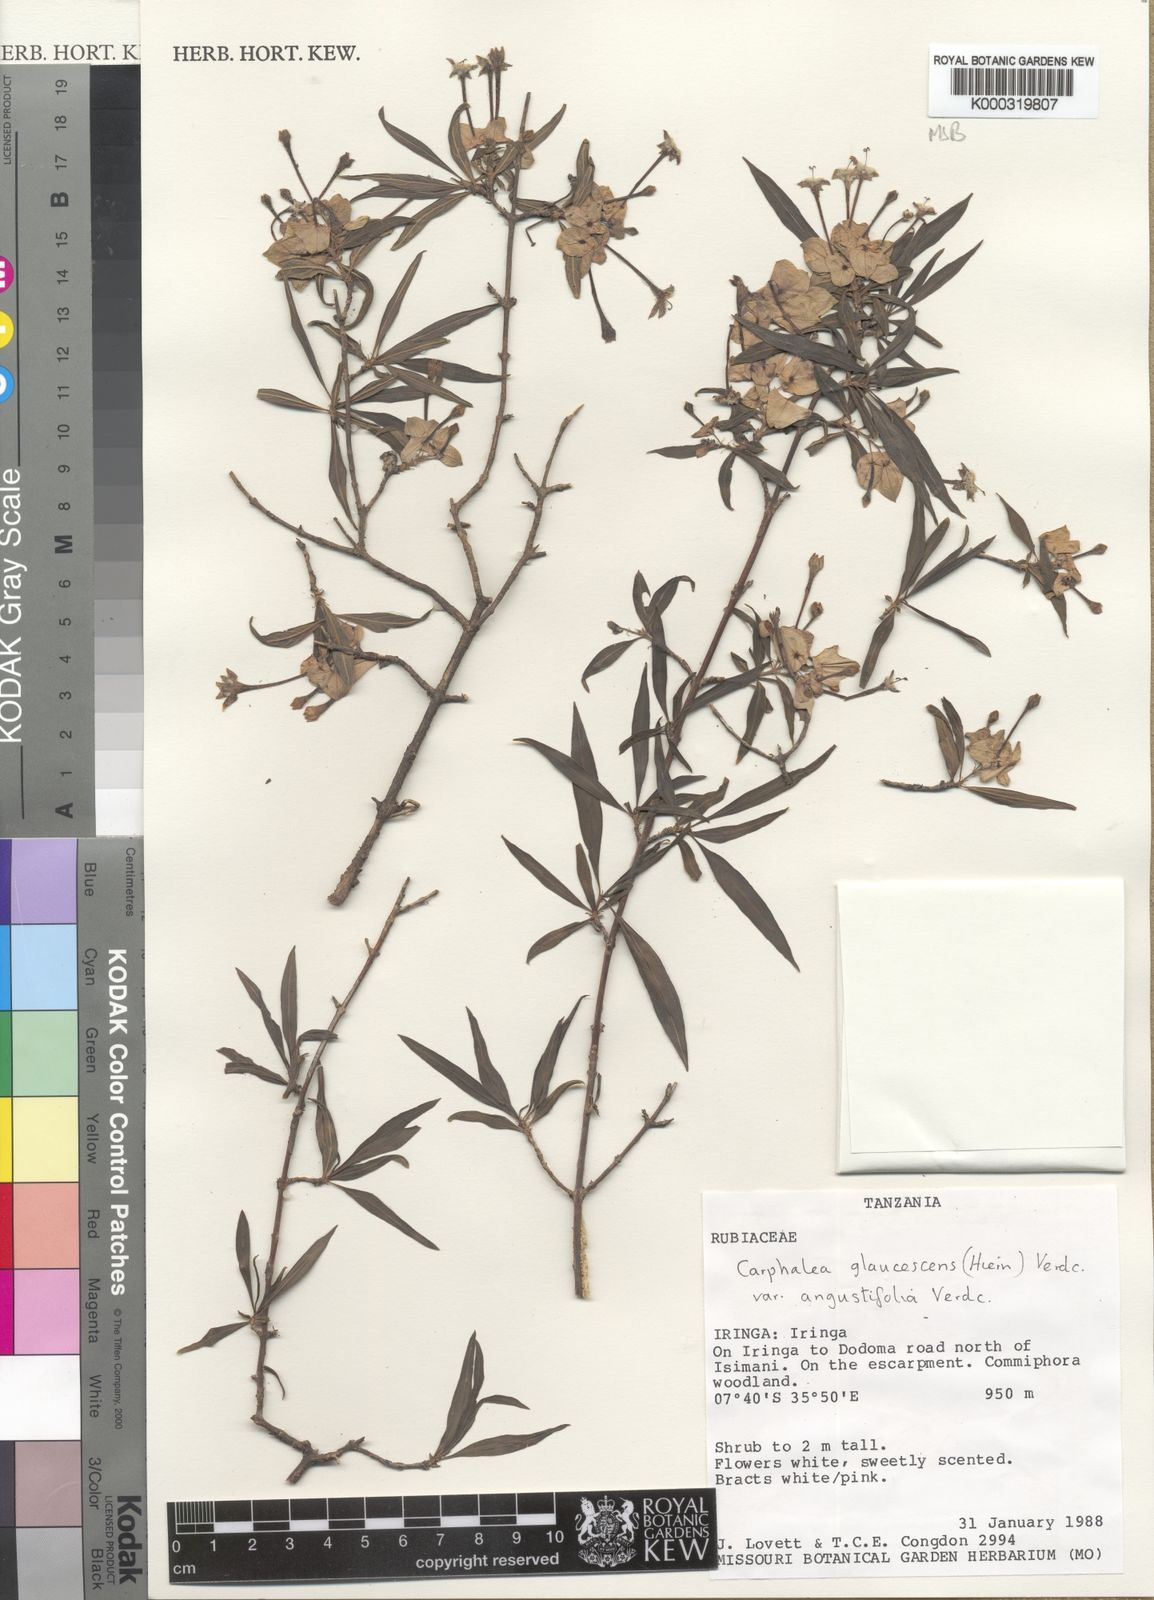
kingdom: Plantae
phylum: Tracheophyta
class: Magnoliopsida
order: Gentianales
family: Rubiaceae
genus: Dirichletia
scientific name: Dirichletia glaucescens
